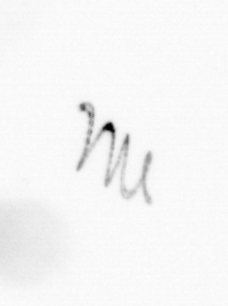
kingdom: Chromista
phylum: Ochrophyta
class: Bacillariophyceae
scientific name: Bacillariophyceae
